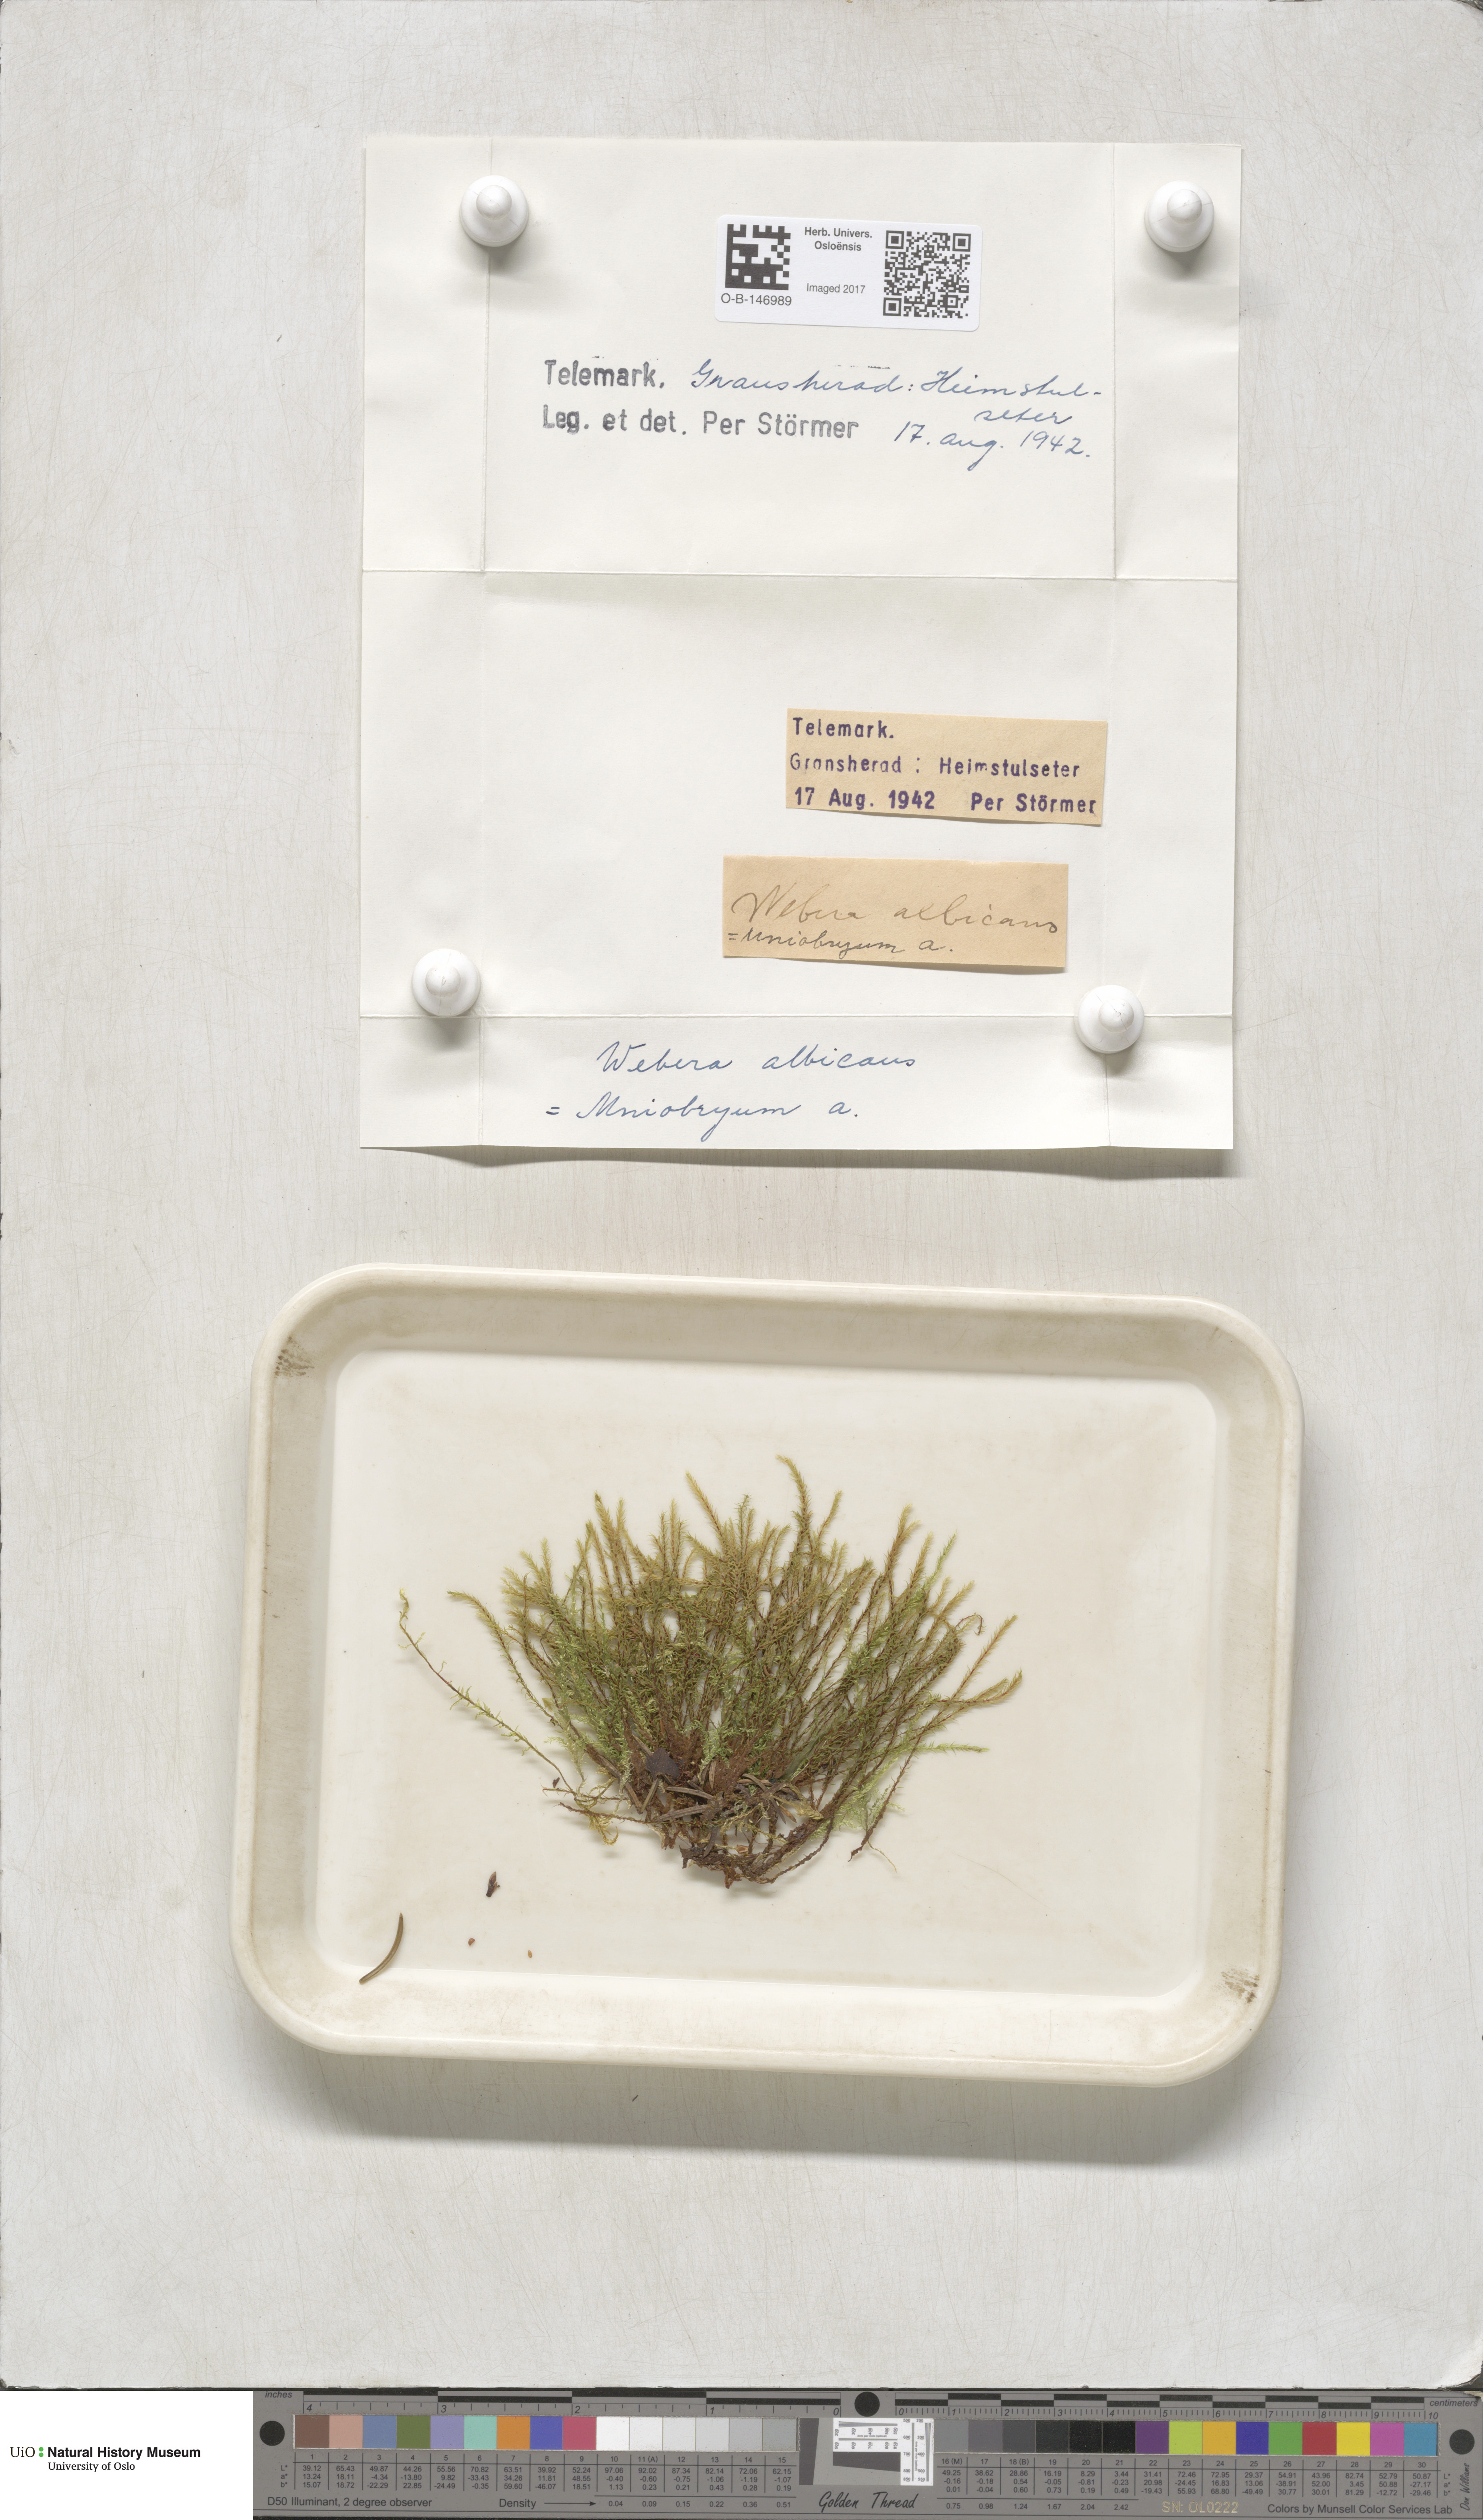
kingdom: Plantae
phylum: Bryophyta
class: Bryopsida
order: Bryales
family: Mniaceae
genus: Pohlia
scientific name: Pohlia wahlenbergii
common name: Wahlenberg's nodding moss
